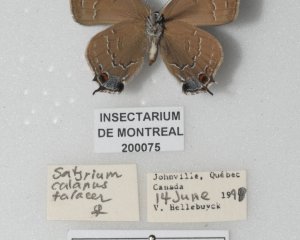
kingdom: Animalia
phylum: Arthropoda
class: Insecta
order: Lepidoptera
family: Lycaenidae
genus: Satyrium
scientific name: Satyrium calanus
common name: Banded Hairstreak
